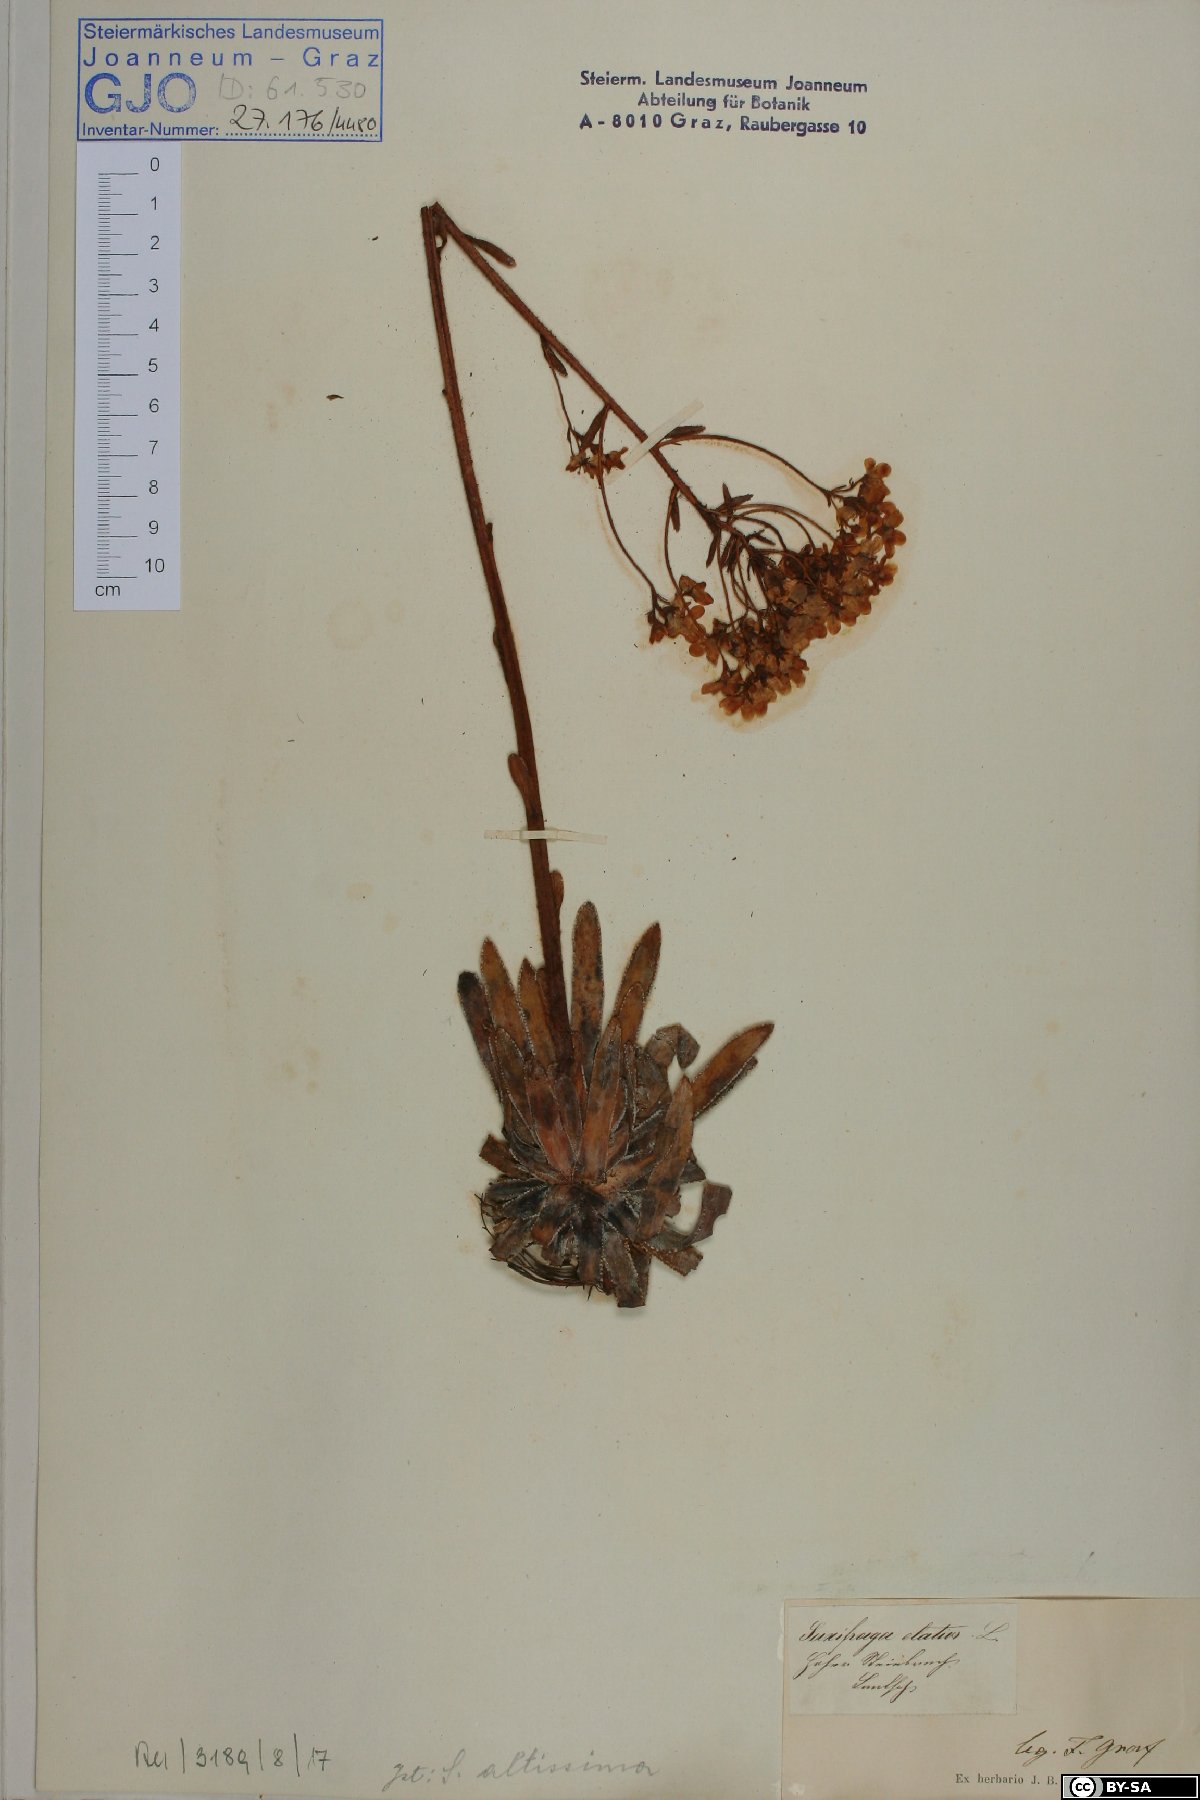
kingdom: Plantae
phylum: Tracheophyta
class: Magnoliopsida
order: Saxifragales
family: Saxifragaceae
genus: Saxifraga
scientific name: Saxifraga hostii
